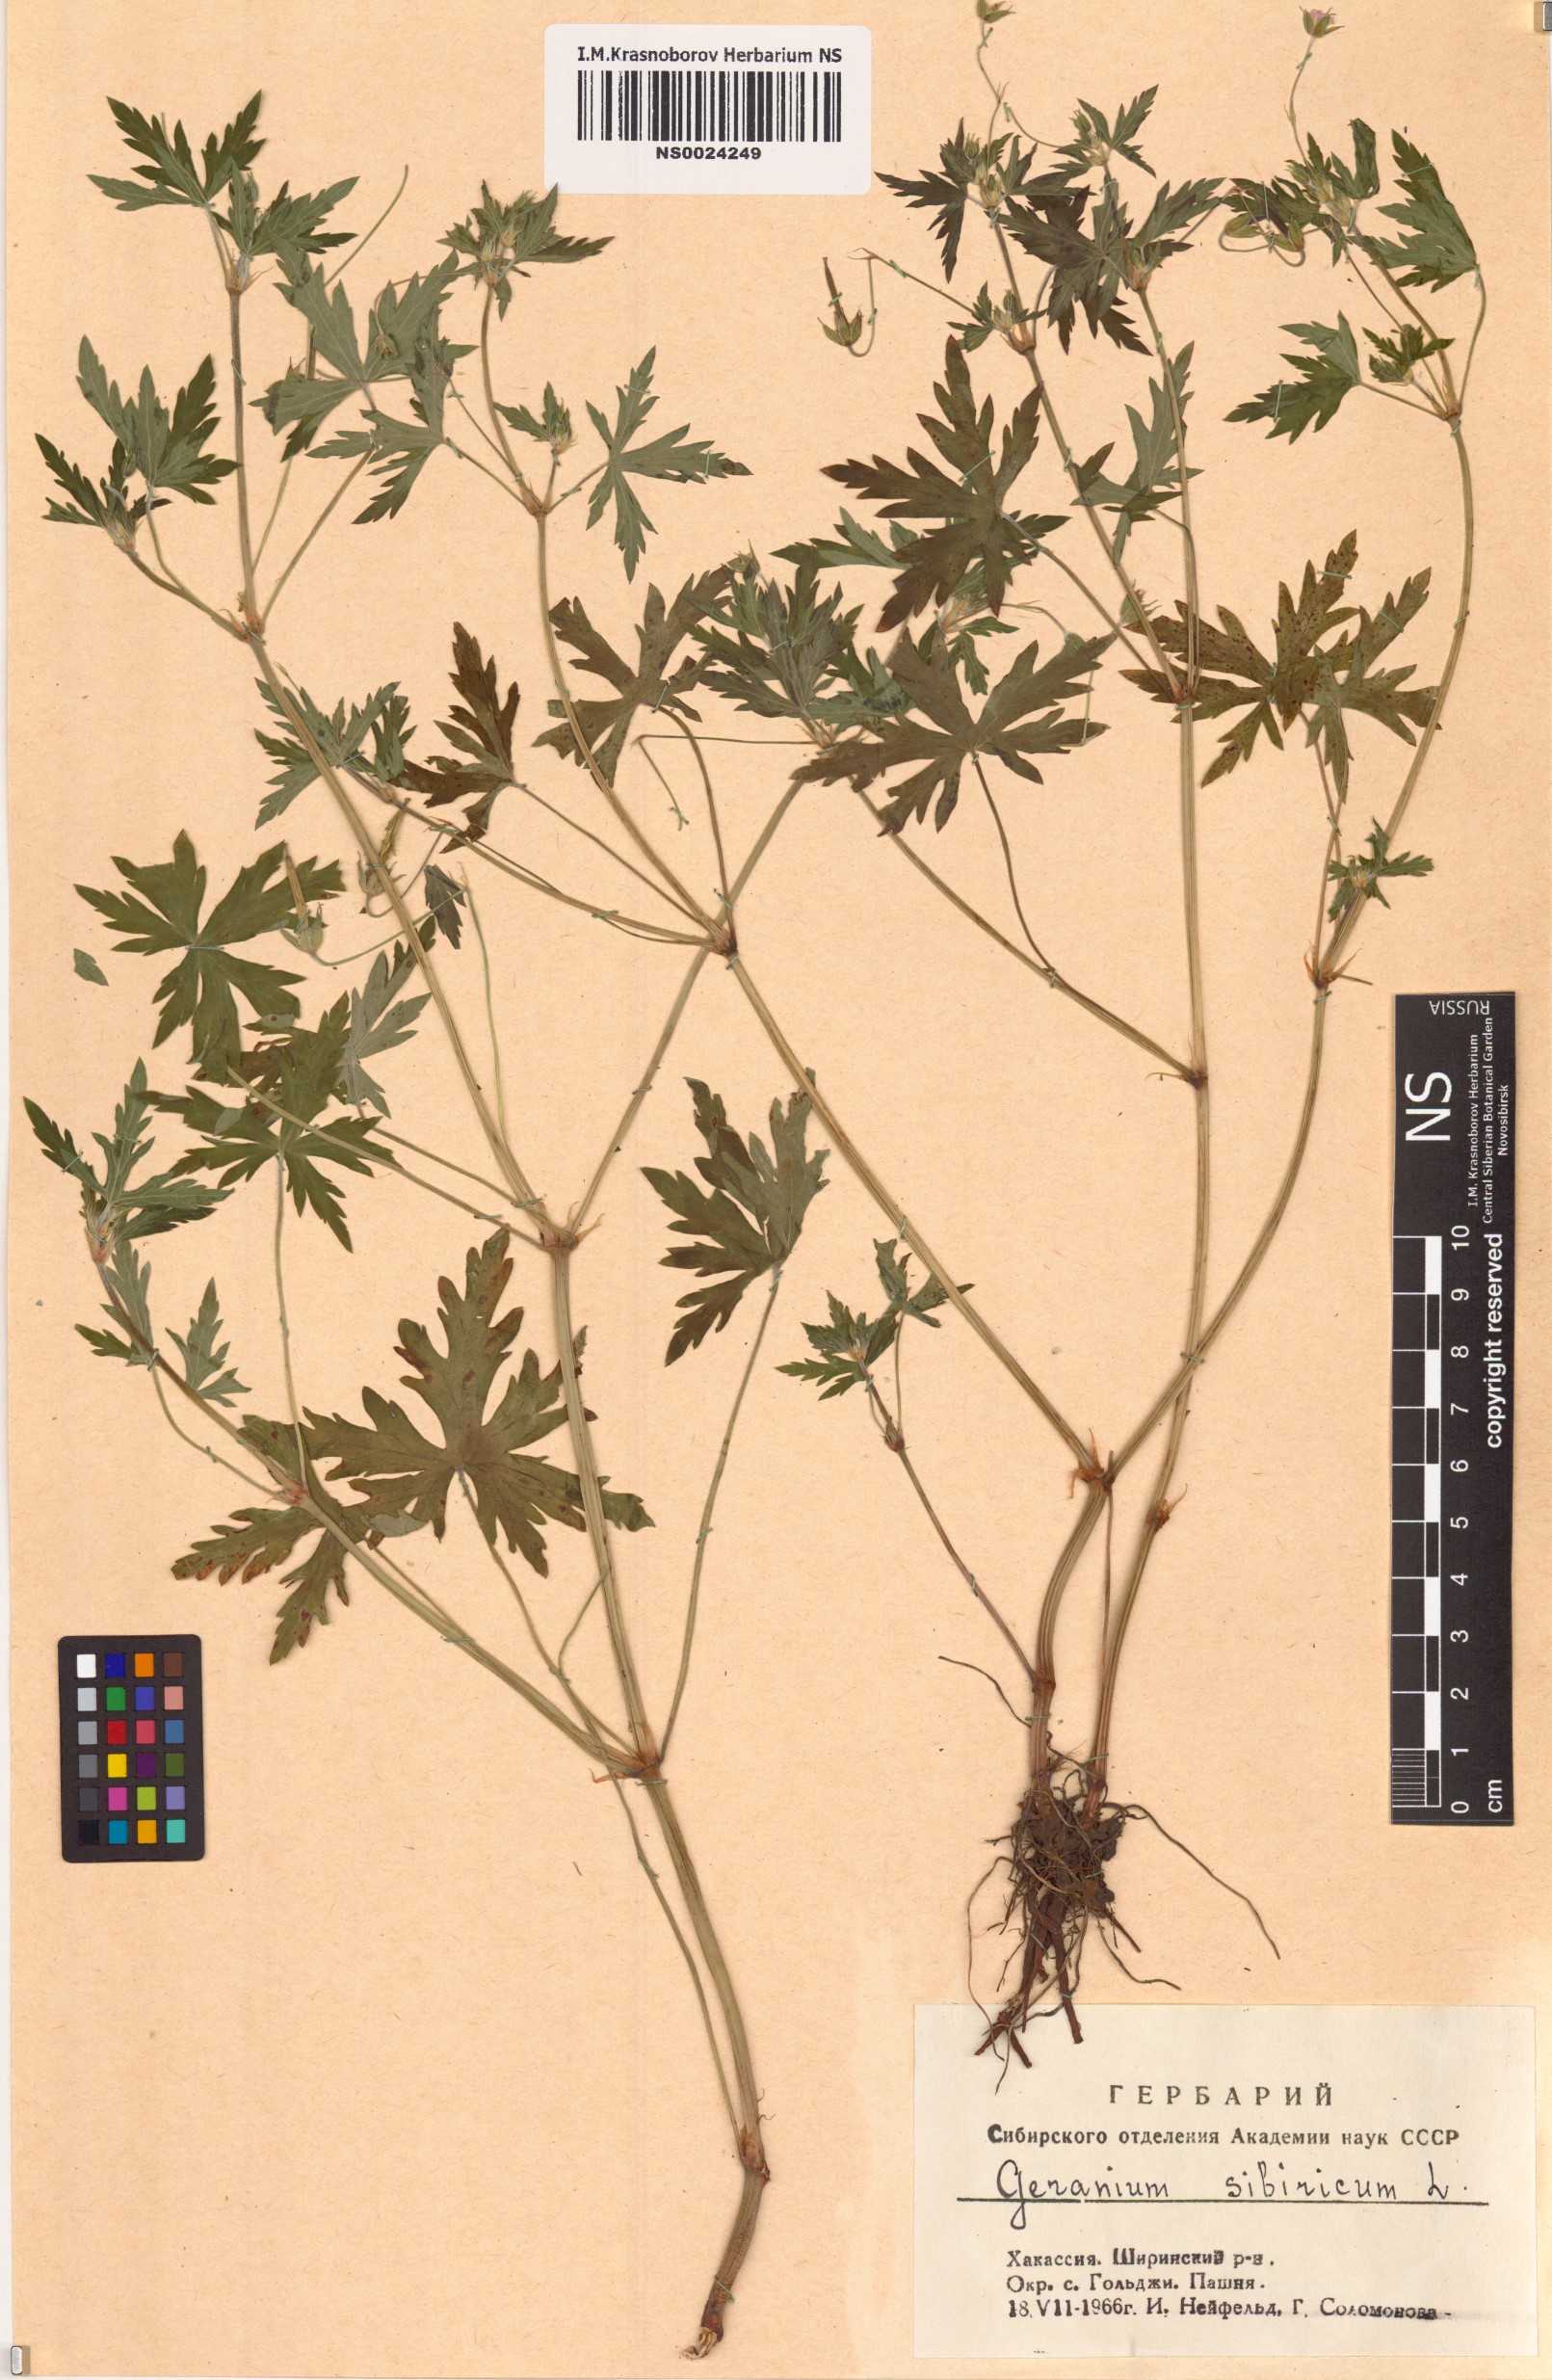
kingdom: Plantae
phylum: Tracheophyta
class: Magnoliopsida
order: Geraniales
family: Geraniaceae
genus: Geranium
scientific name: Geranium sibiricum
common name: Siberian crane's-bill
